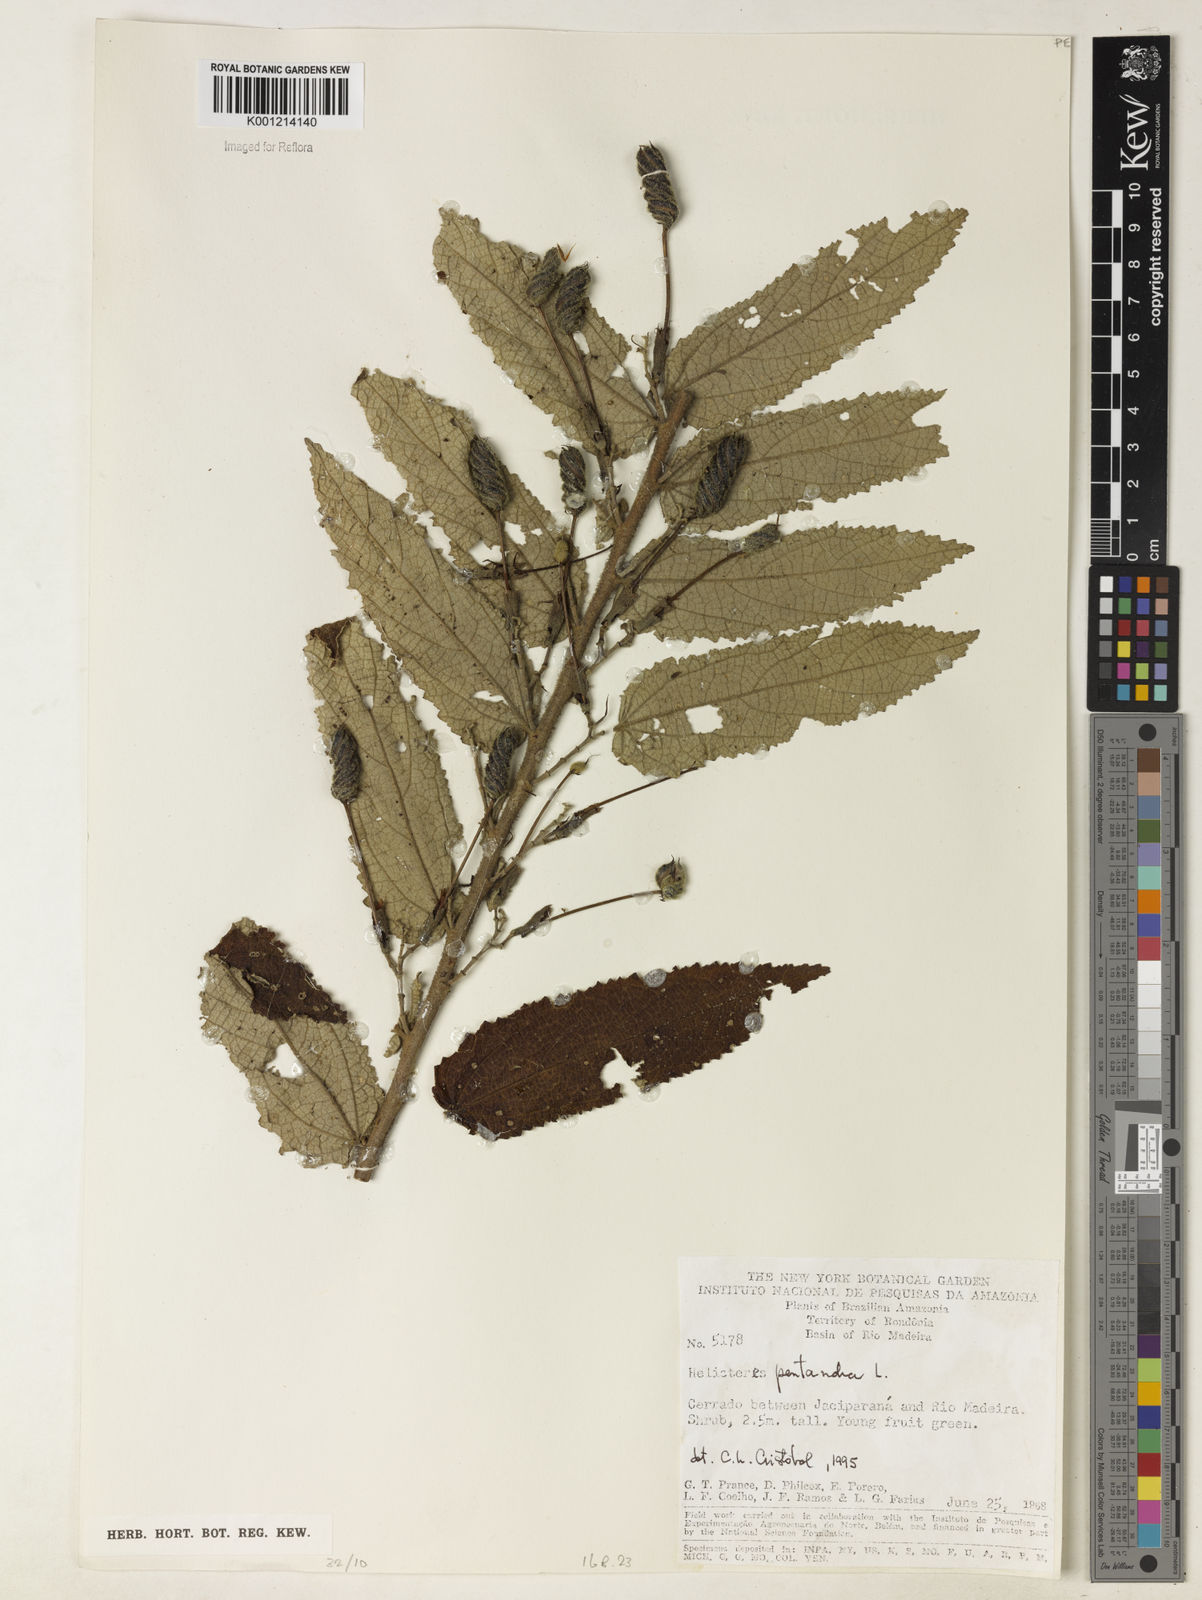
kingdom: Plantae
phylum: Tracheophyta
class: Magnoliopsida
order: Malvales
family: Malvaceae
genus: Helicteres
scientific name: Helicteres pentandra
